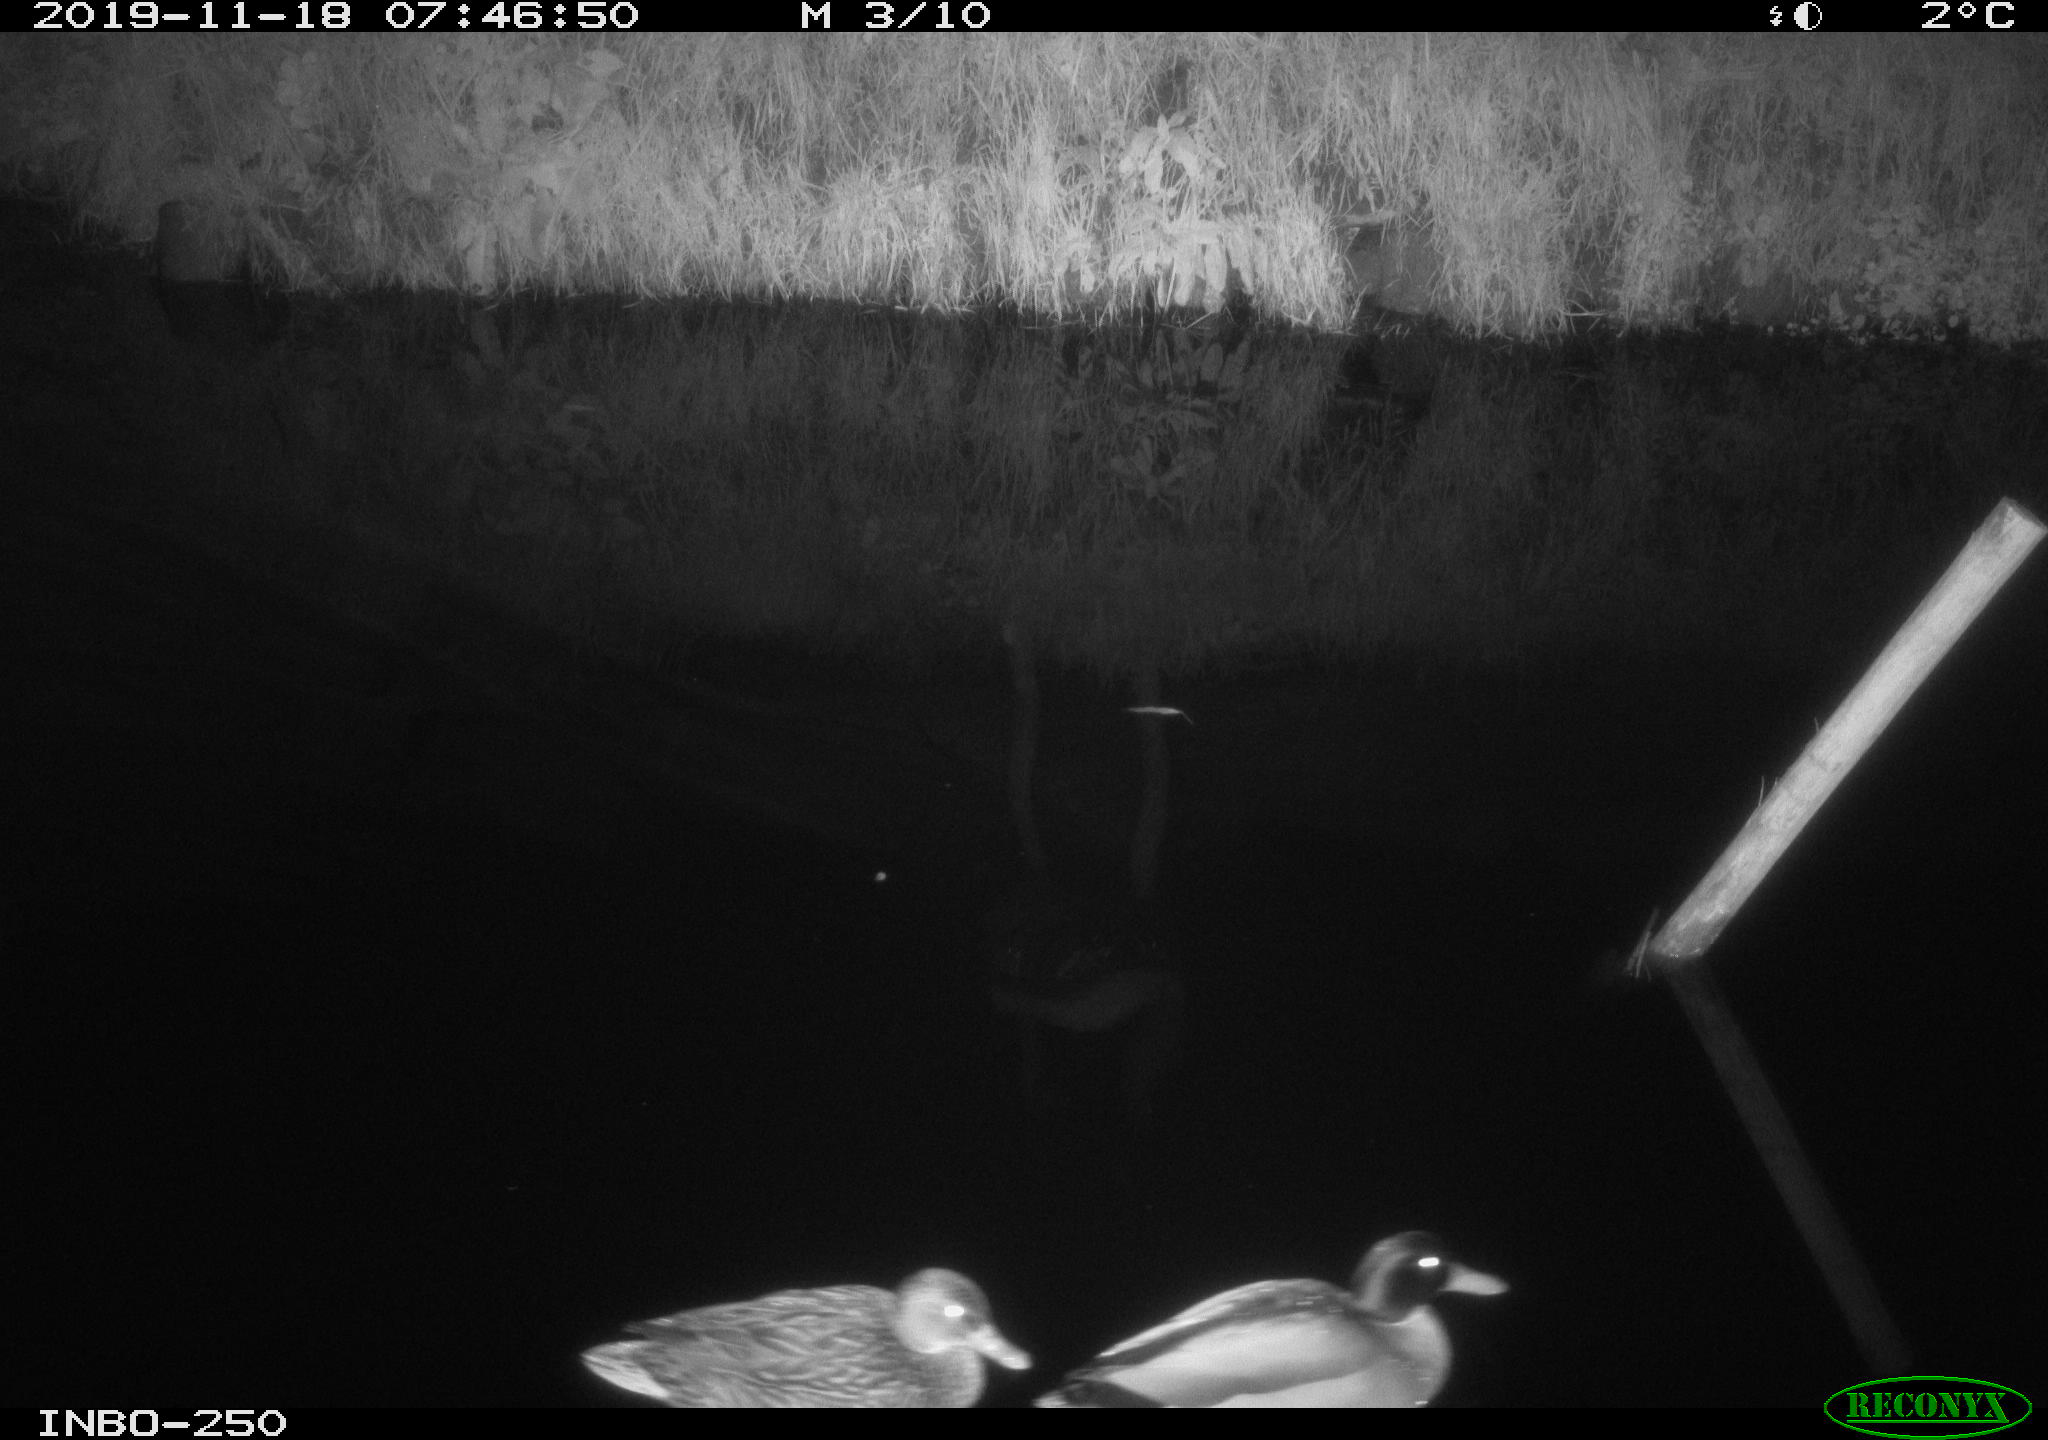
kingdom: Animalia
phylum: Chordata
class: Aves
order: Anseriformes
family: Anatidae
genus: Anas
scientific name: Anas platyrhynchos
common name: Mallard
